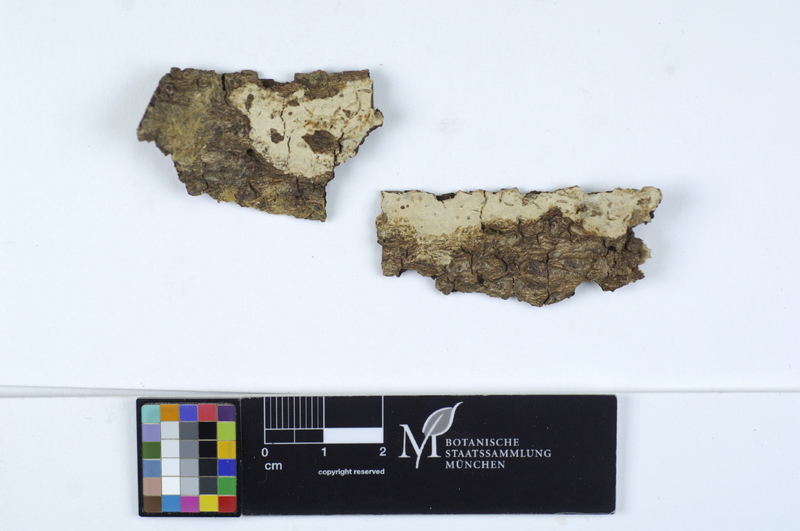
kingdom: Fungi
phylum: Basidiomycota
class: Agaricomycetes
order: Russulales
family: Stereaceae
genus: Gloeocystidiellum
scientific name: Gloeocystidiellum porosum
